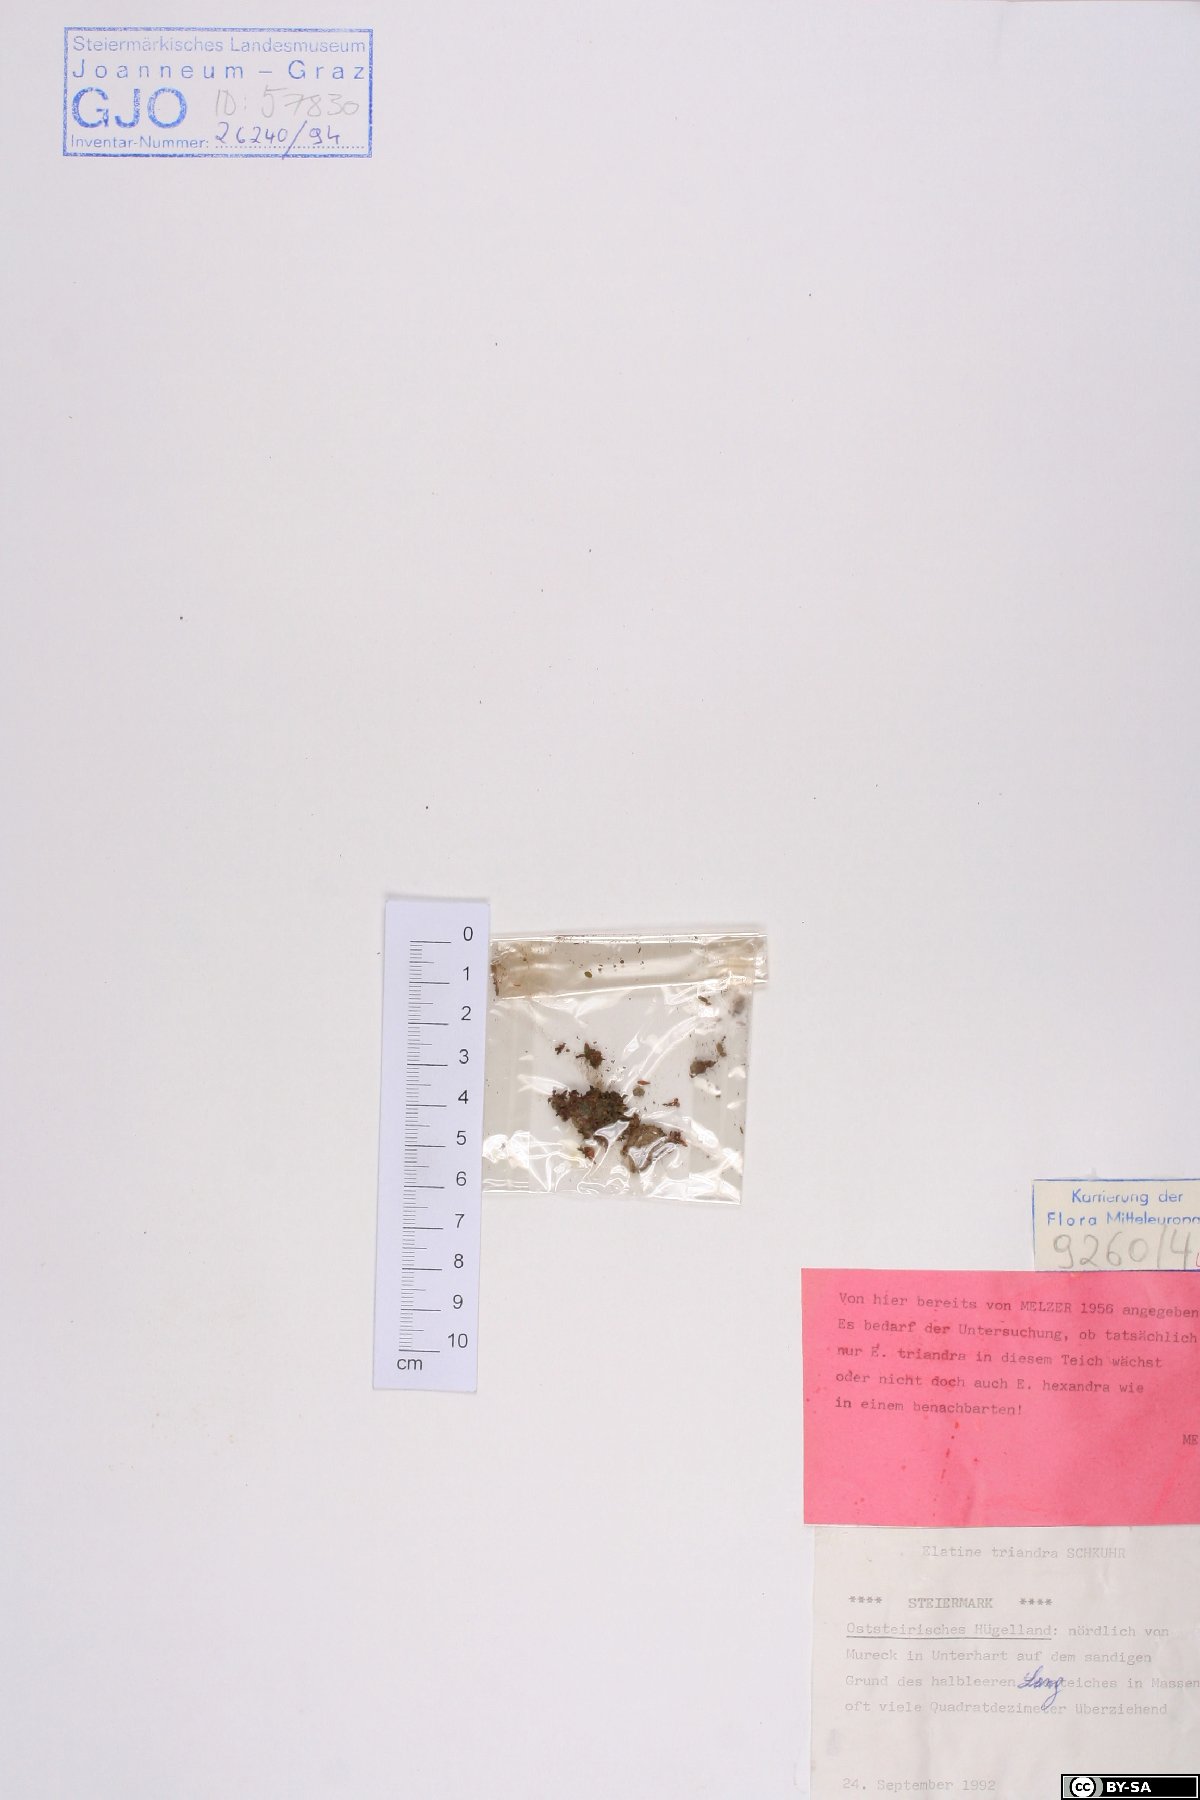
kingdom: Plantae
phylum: Tracheophyta
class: Magnoliopsida
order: Malpighiales
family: Elatinaceae
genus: Elatine
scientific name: Elatine triandra
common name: Three-stamened waterwort
